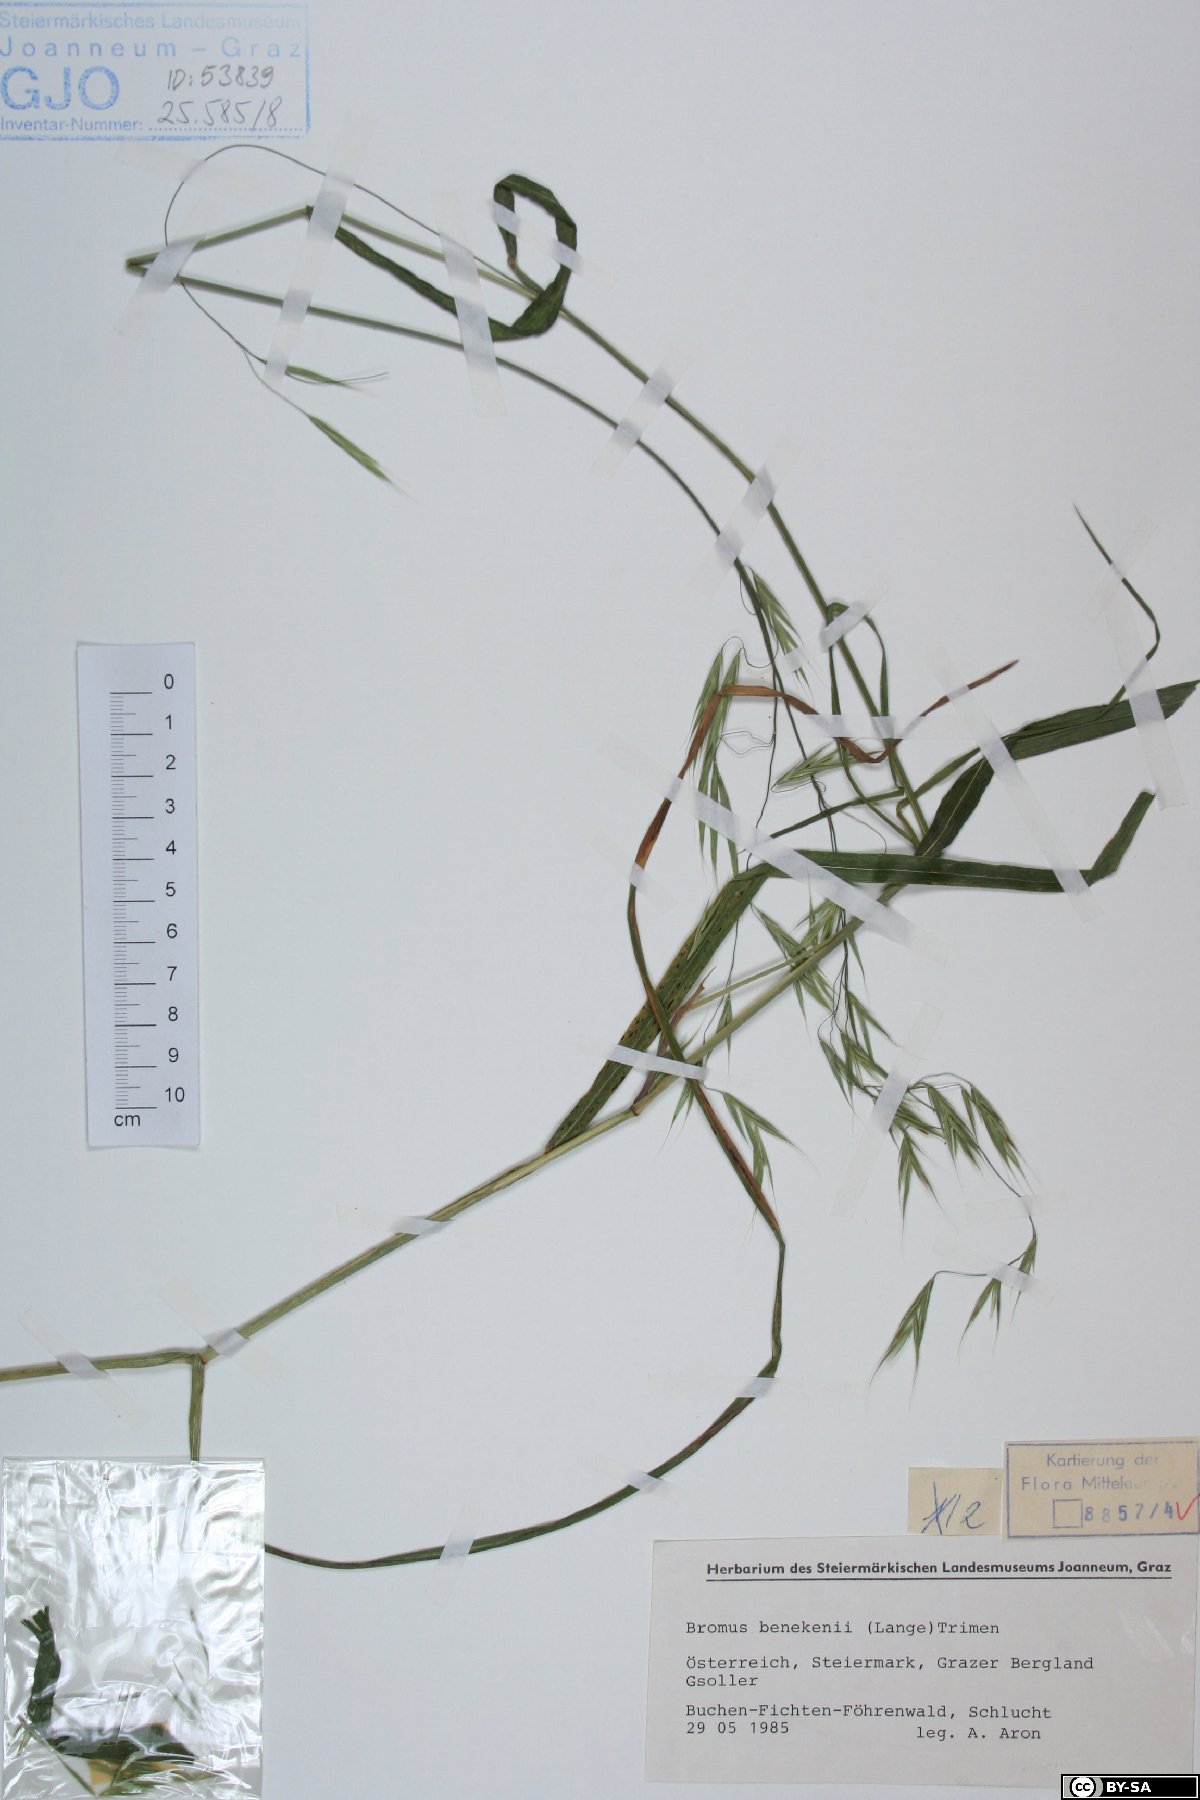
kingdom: Plantae
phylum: Tracheophyta
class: Liliopsida
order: Poales
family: Poaceae
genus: Bromus
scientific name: Bromus benekenii
